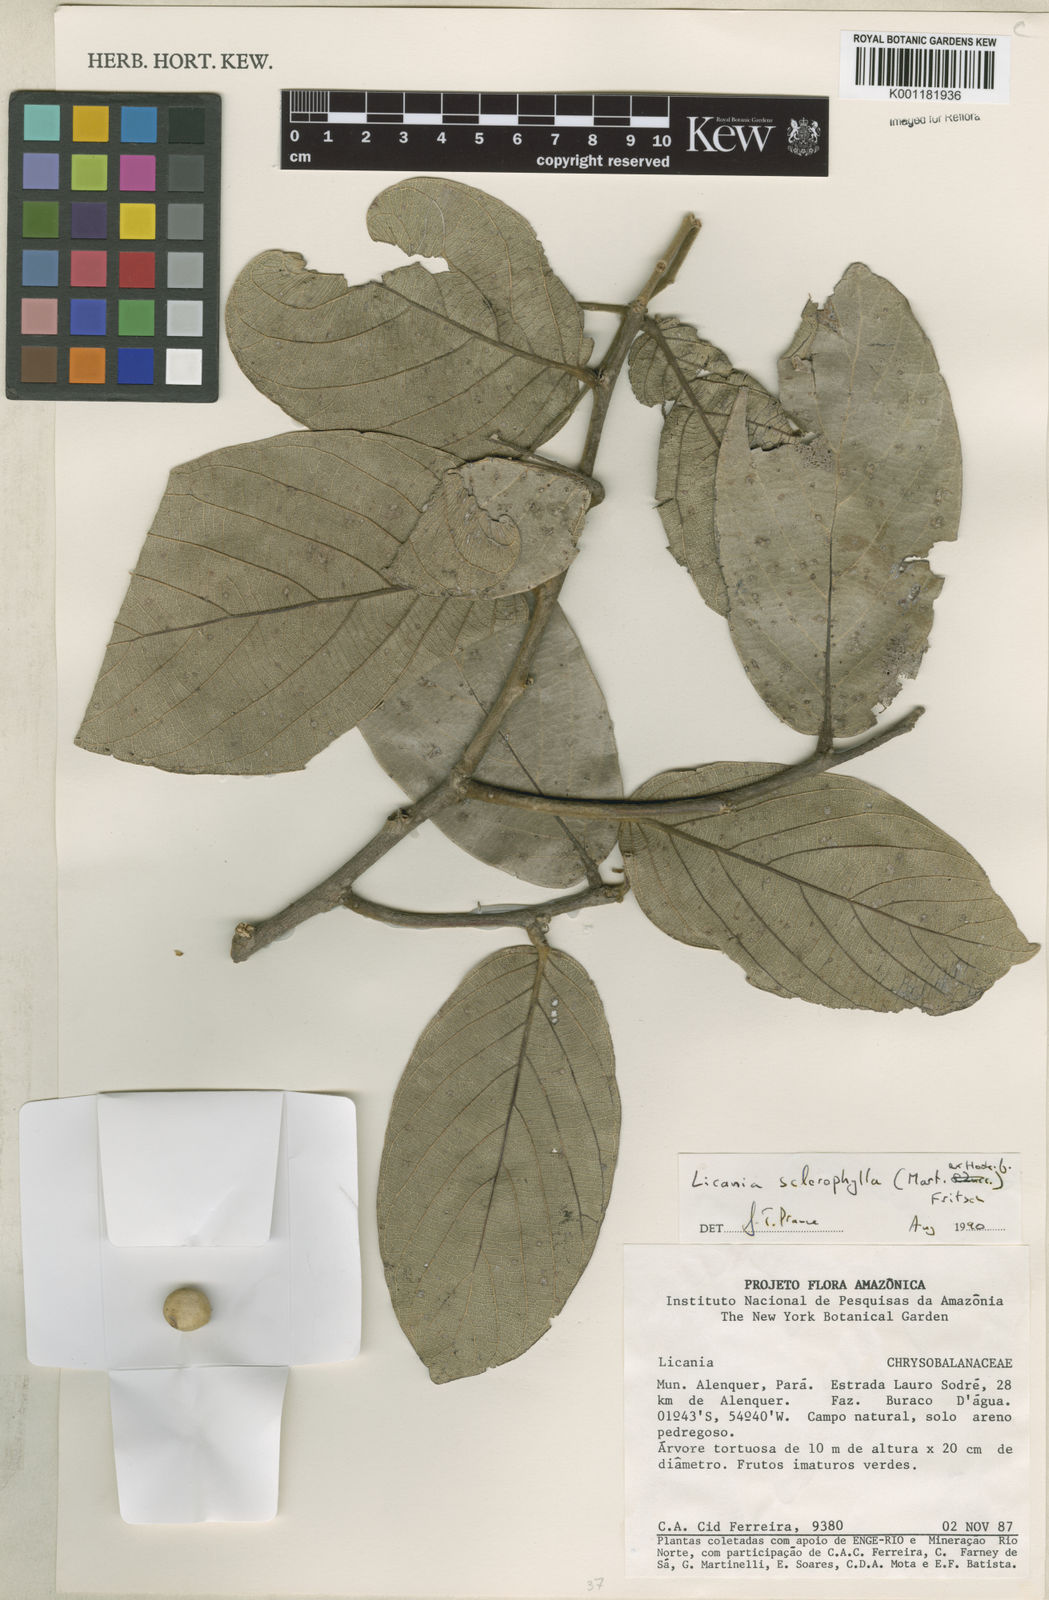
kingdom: Plantae
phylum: Tracheophyta
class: Magnoliopsida
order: Malpighiales
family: Chrysobalanaceae
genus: Leptobalanus
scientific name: Leptobalanus sclerophyllus
